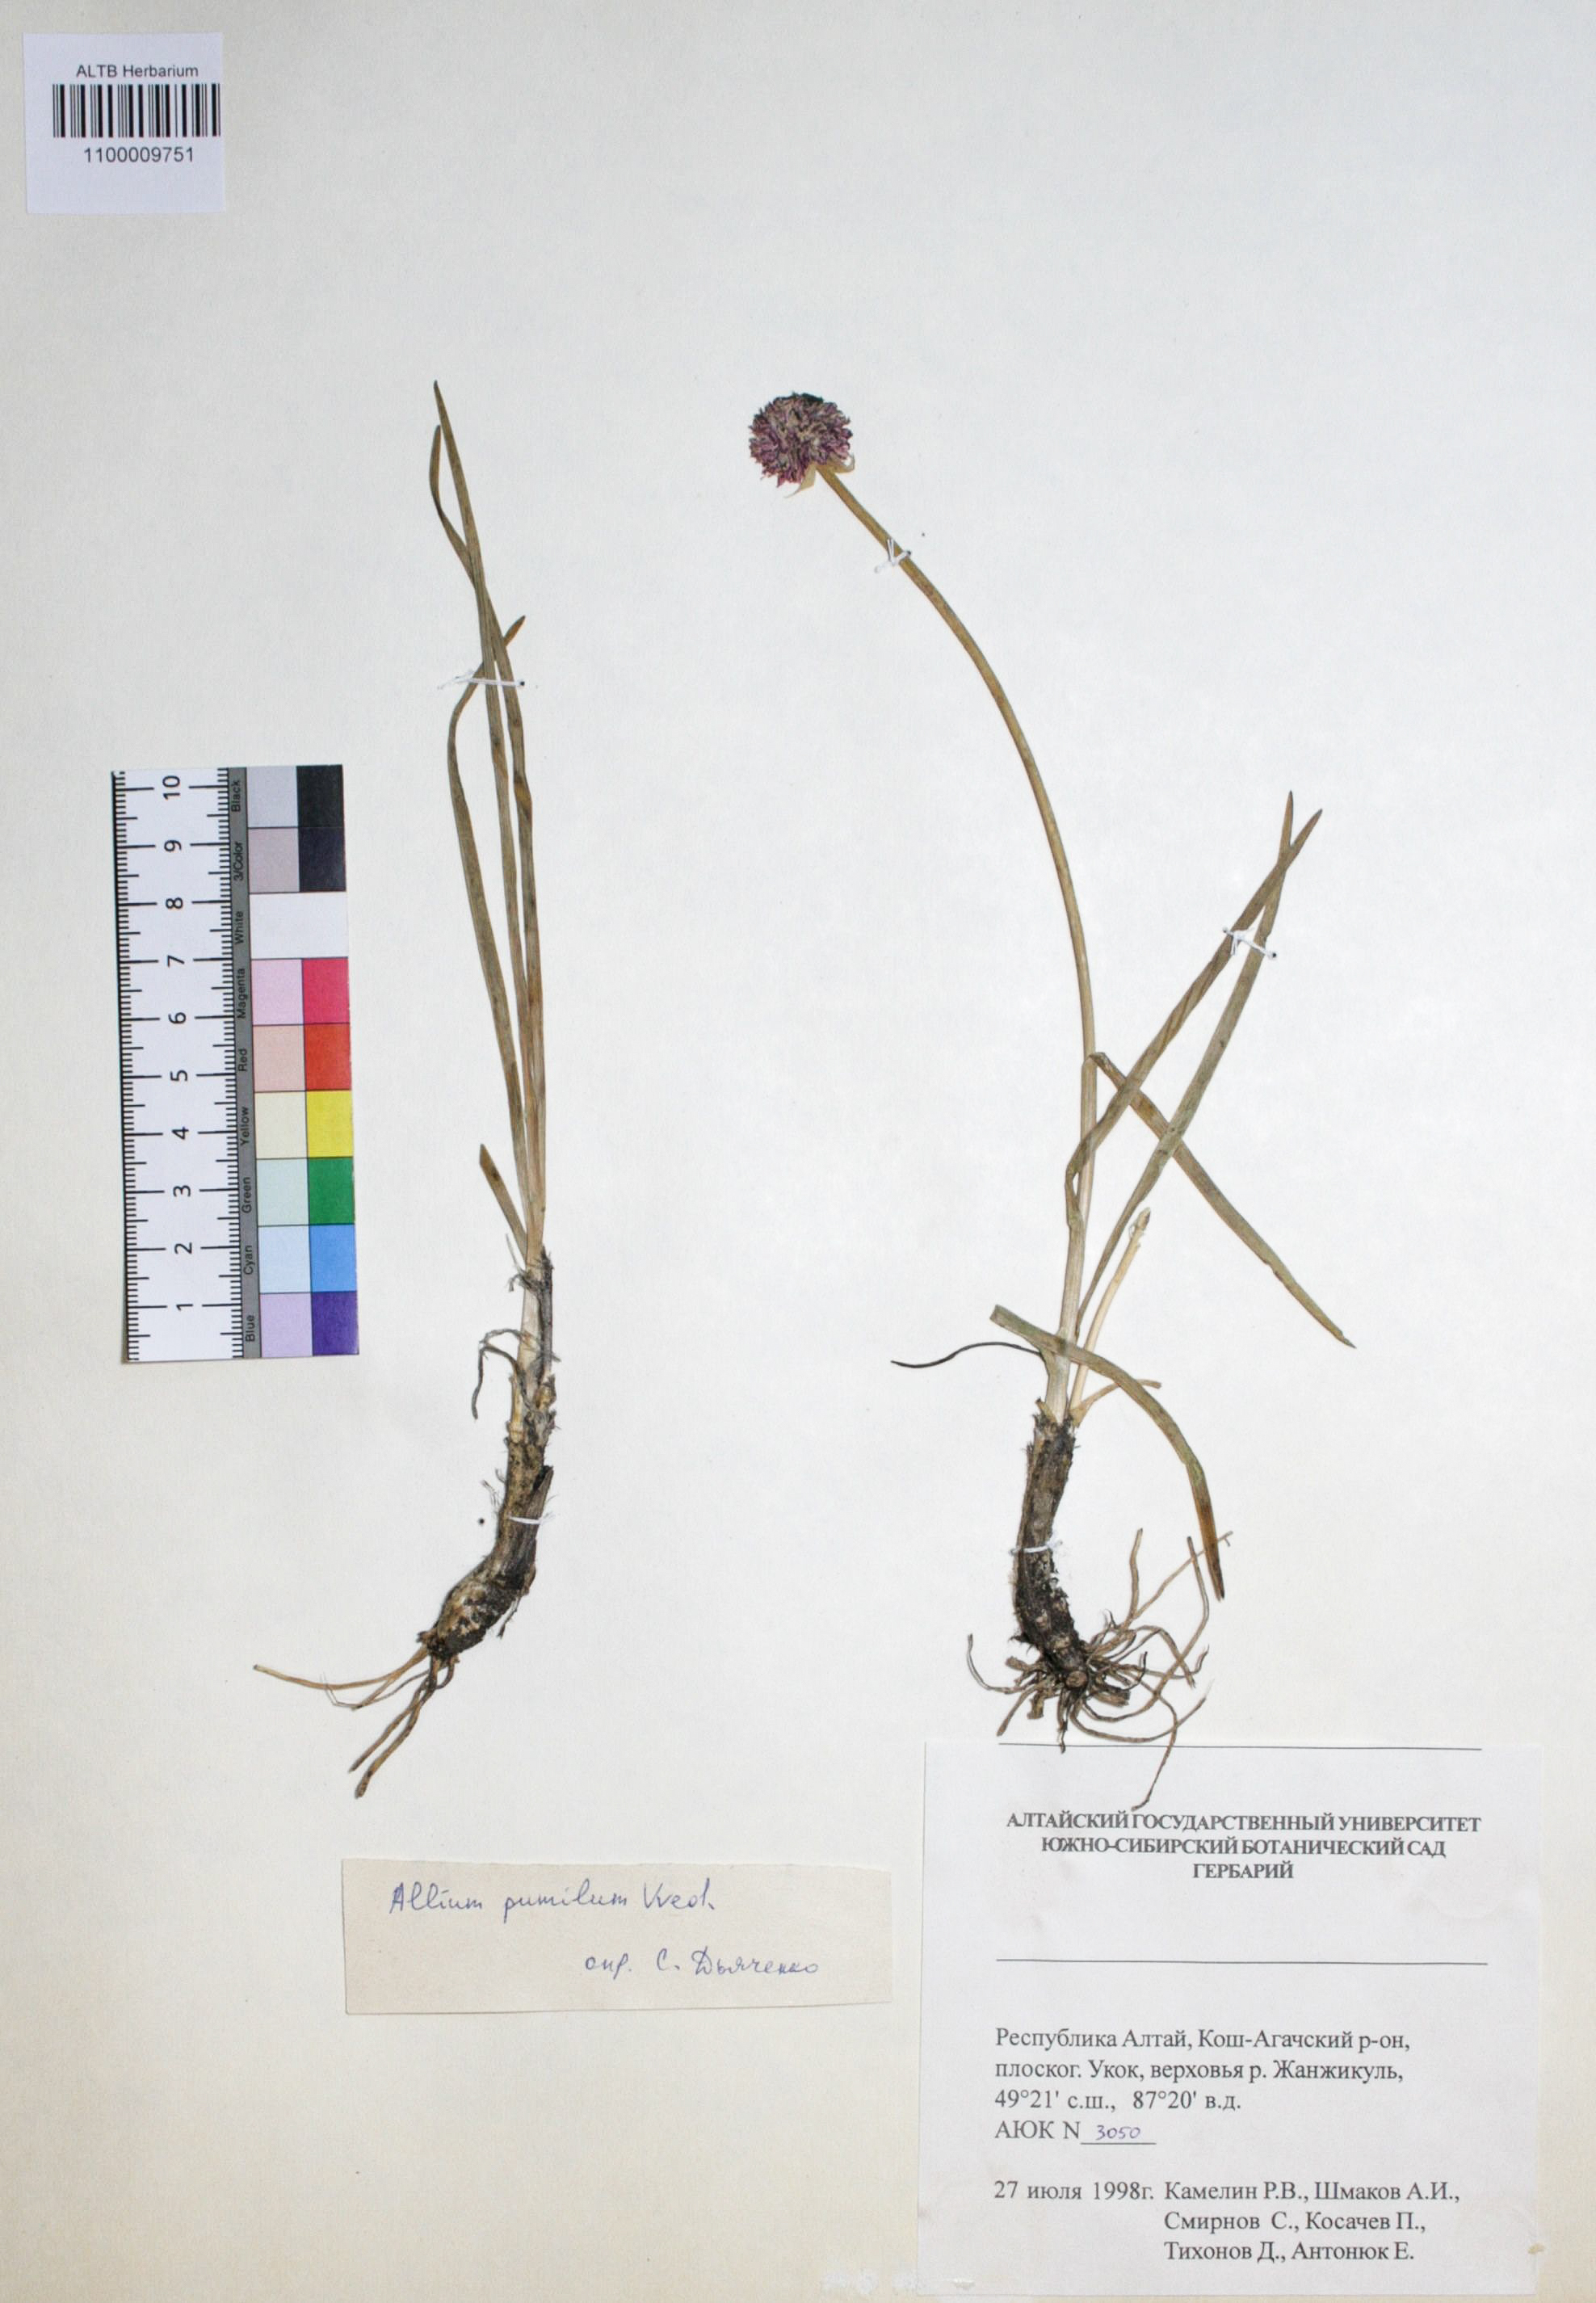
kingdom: Plantae
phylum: Tracheophyta
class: Liliopsida
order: Asparagales
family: Amaryllidaceae
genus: Allium
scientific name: Allium pumilum
